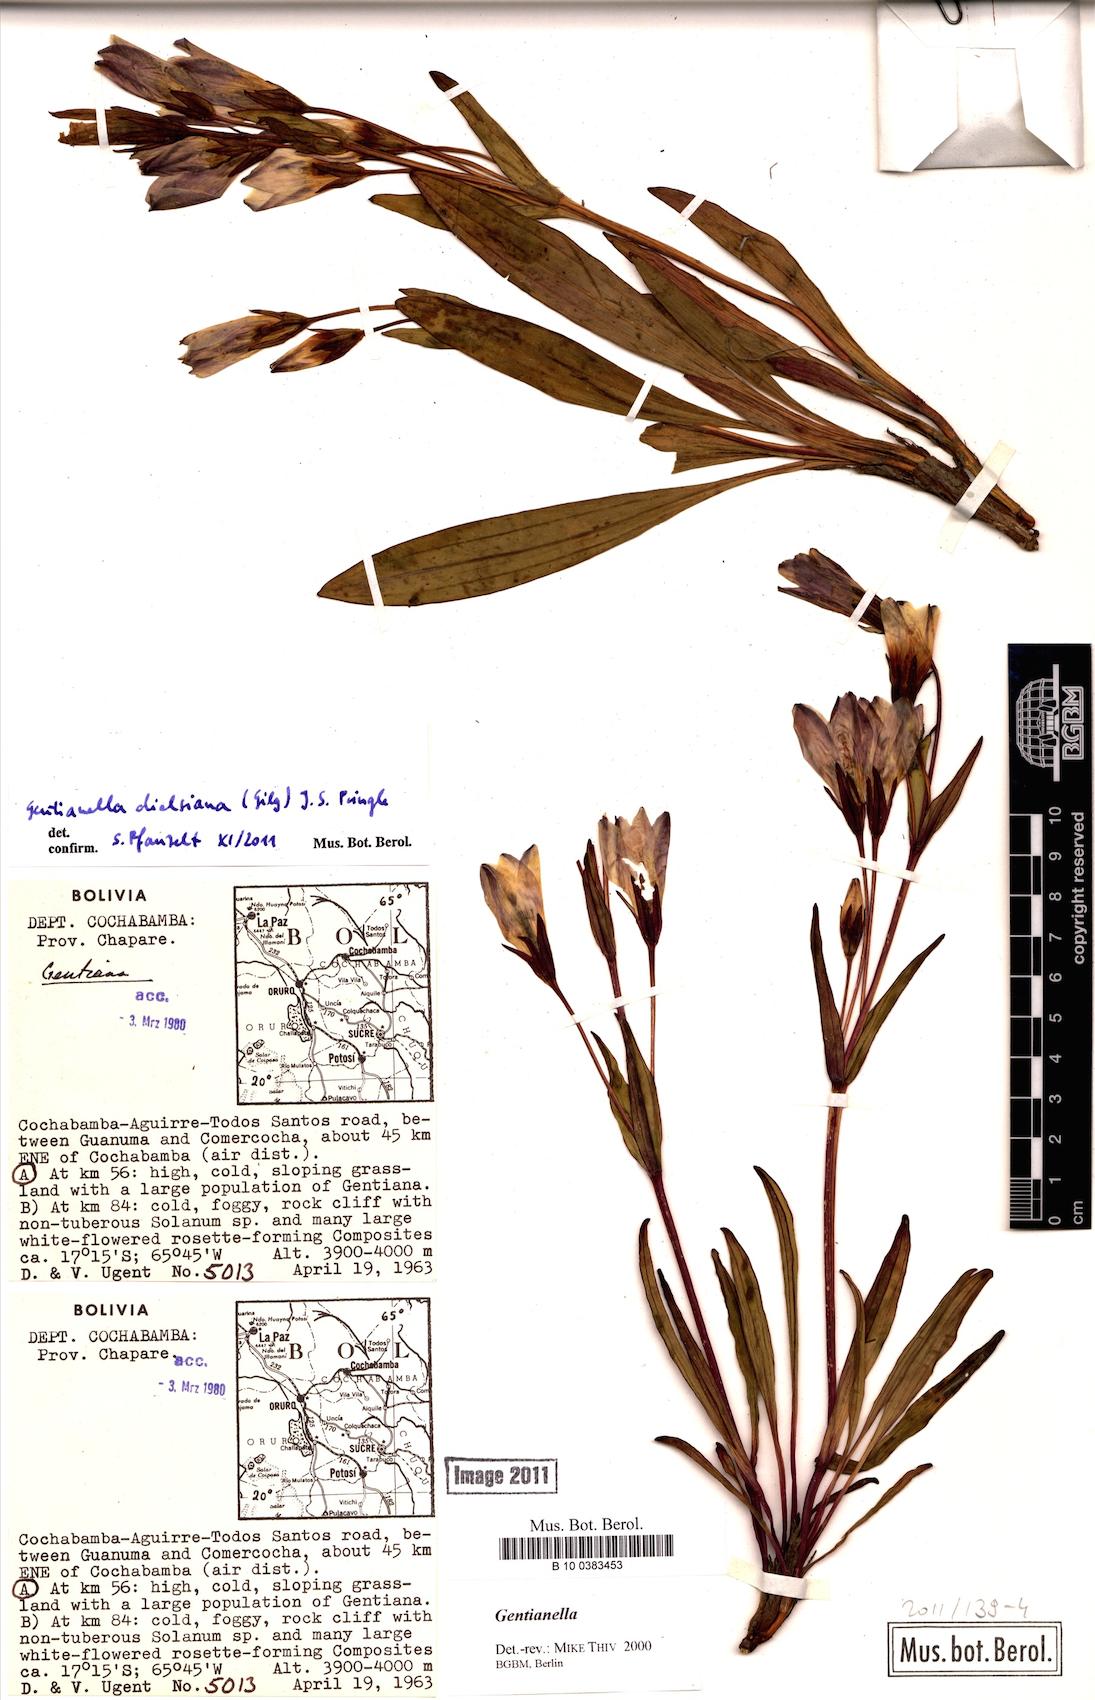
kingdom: Plantae
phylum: Tracheophyta
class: Magnoliopsida
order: Gentianales
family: Gentianaceae
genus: Gentianella
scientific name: Gentianella dielsiana
